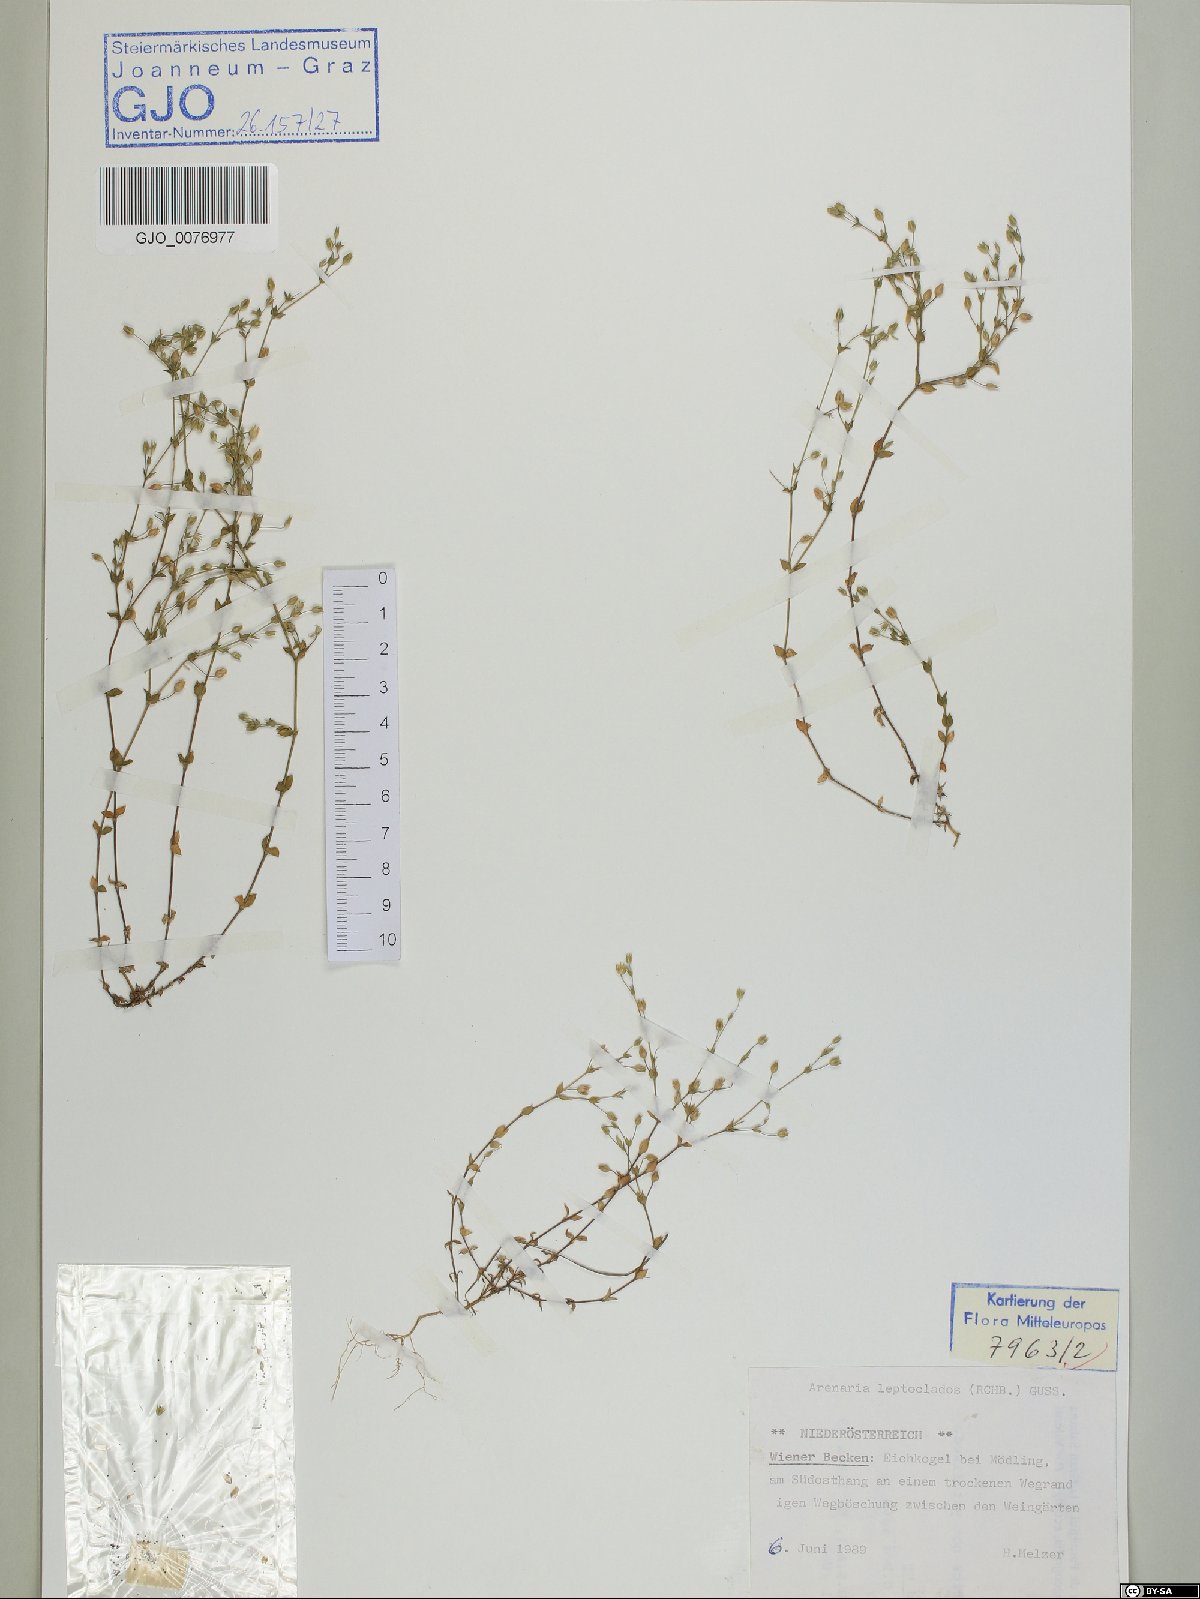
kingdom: Plantae
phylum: Tracheophyta
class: Magnoliopsida
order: Caryophyllales
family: Caryophyllaceae
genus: Arenaria
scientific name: Arenaria leptoclados
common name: Thyme-leaved sandwort
